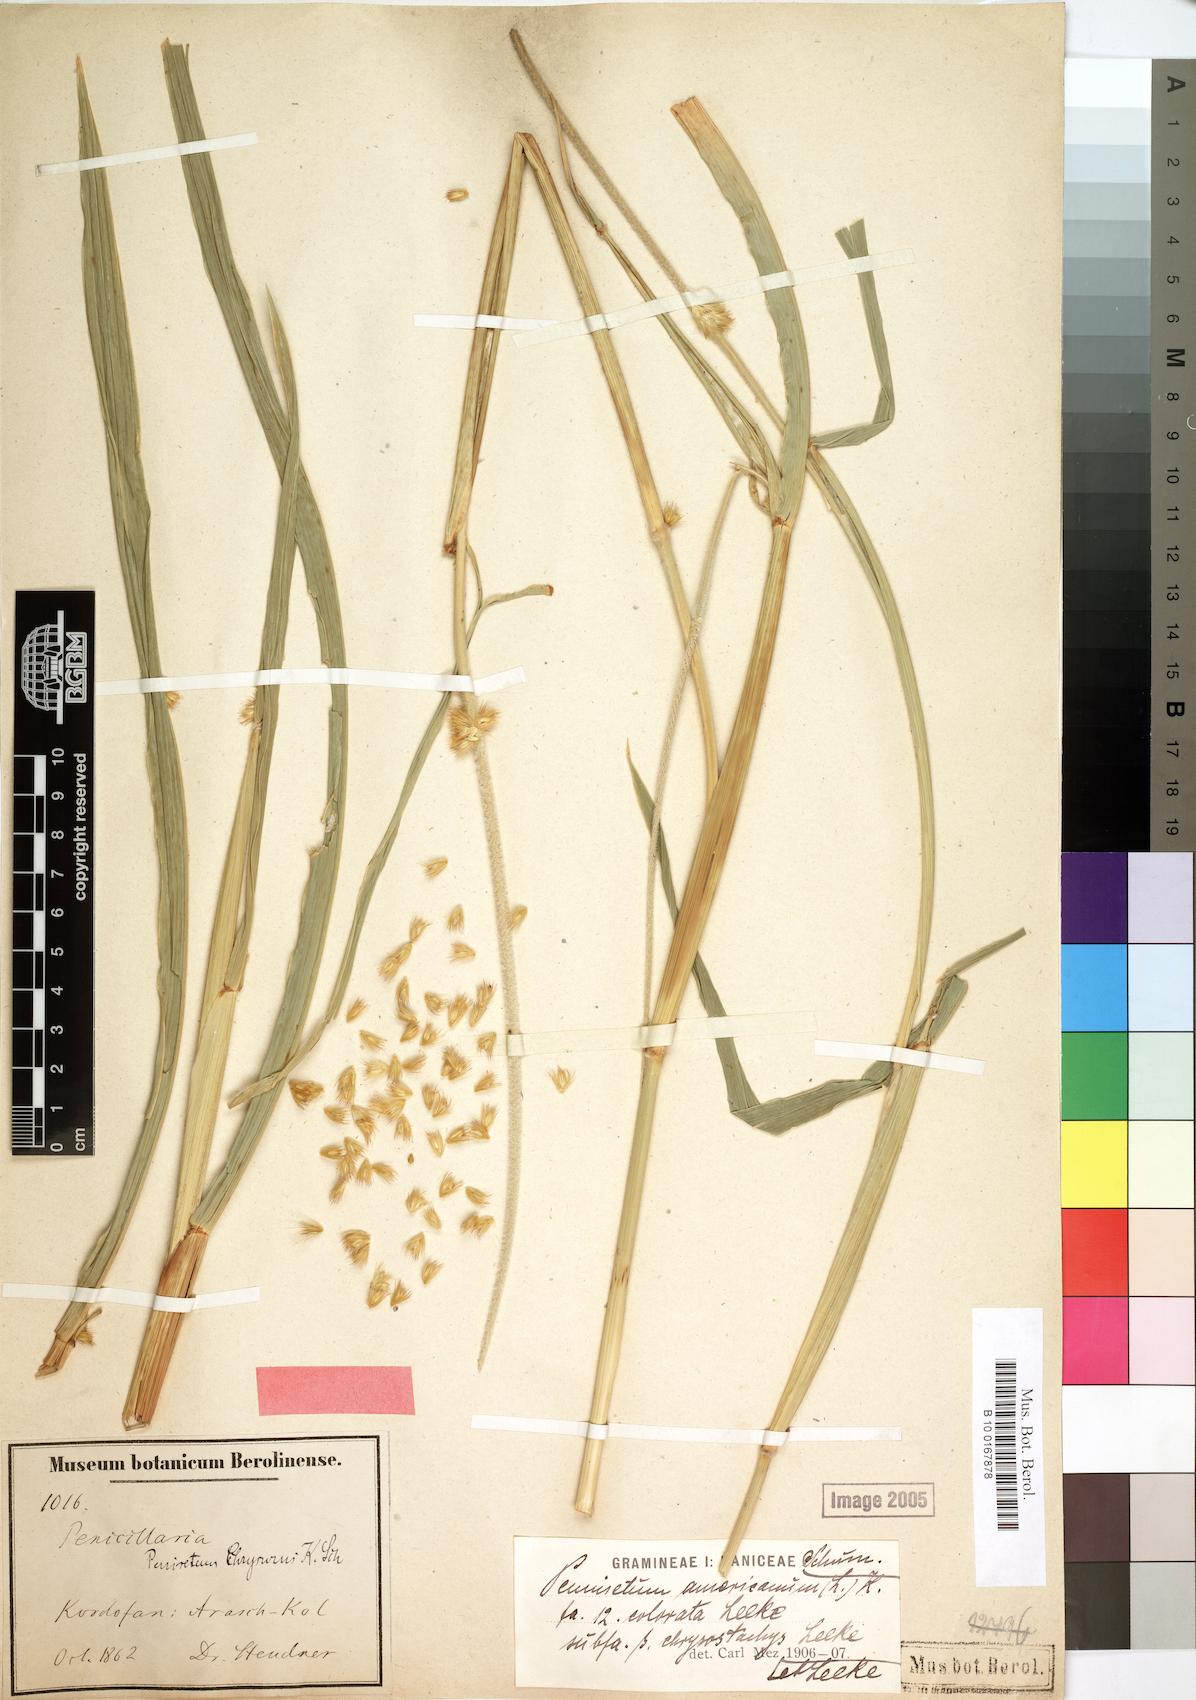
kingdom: Plantae
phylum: Tracheophyta
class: Liliopsida
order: Poales
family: Poaceae
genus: Cenchrus
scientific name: Cenchrus americanus
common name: Pearl millet
